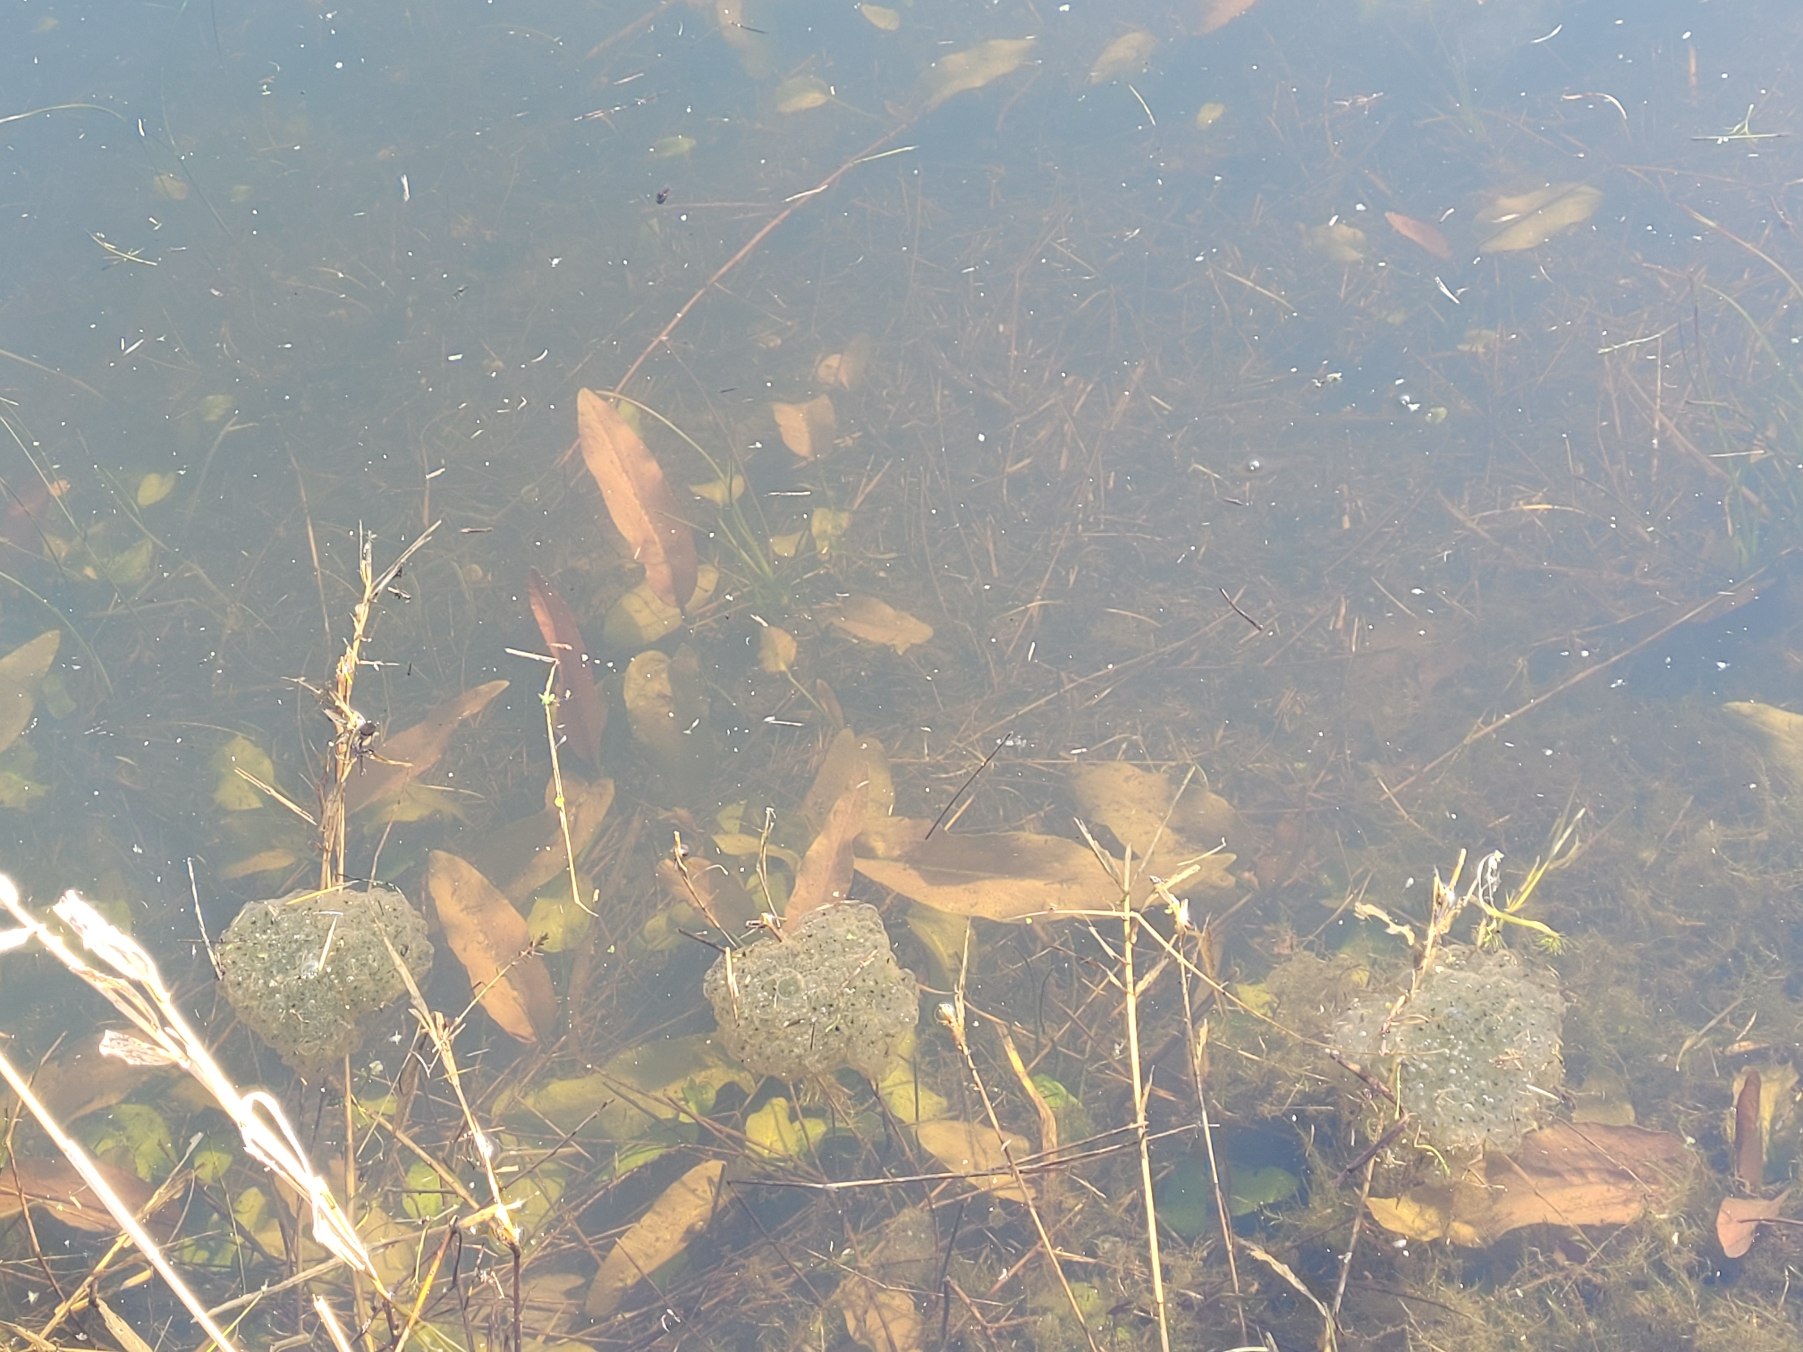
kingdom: Animalia
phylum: Chordata
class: Amphibia
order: Anura
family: Ranidae
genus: Rana
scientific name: Rana dalmatina
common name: Springfrø
